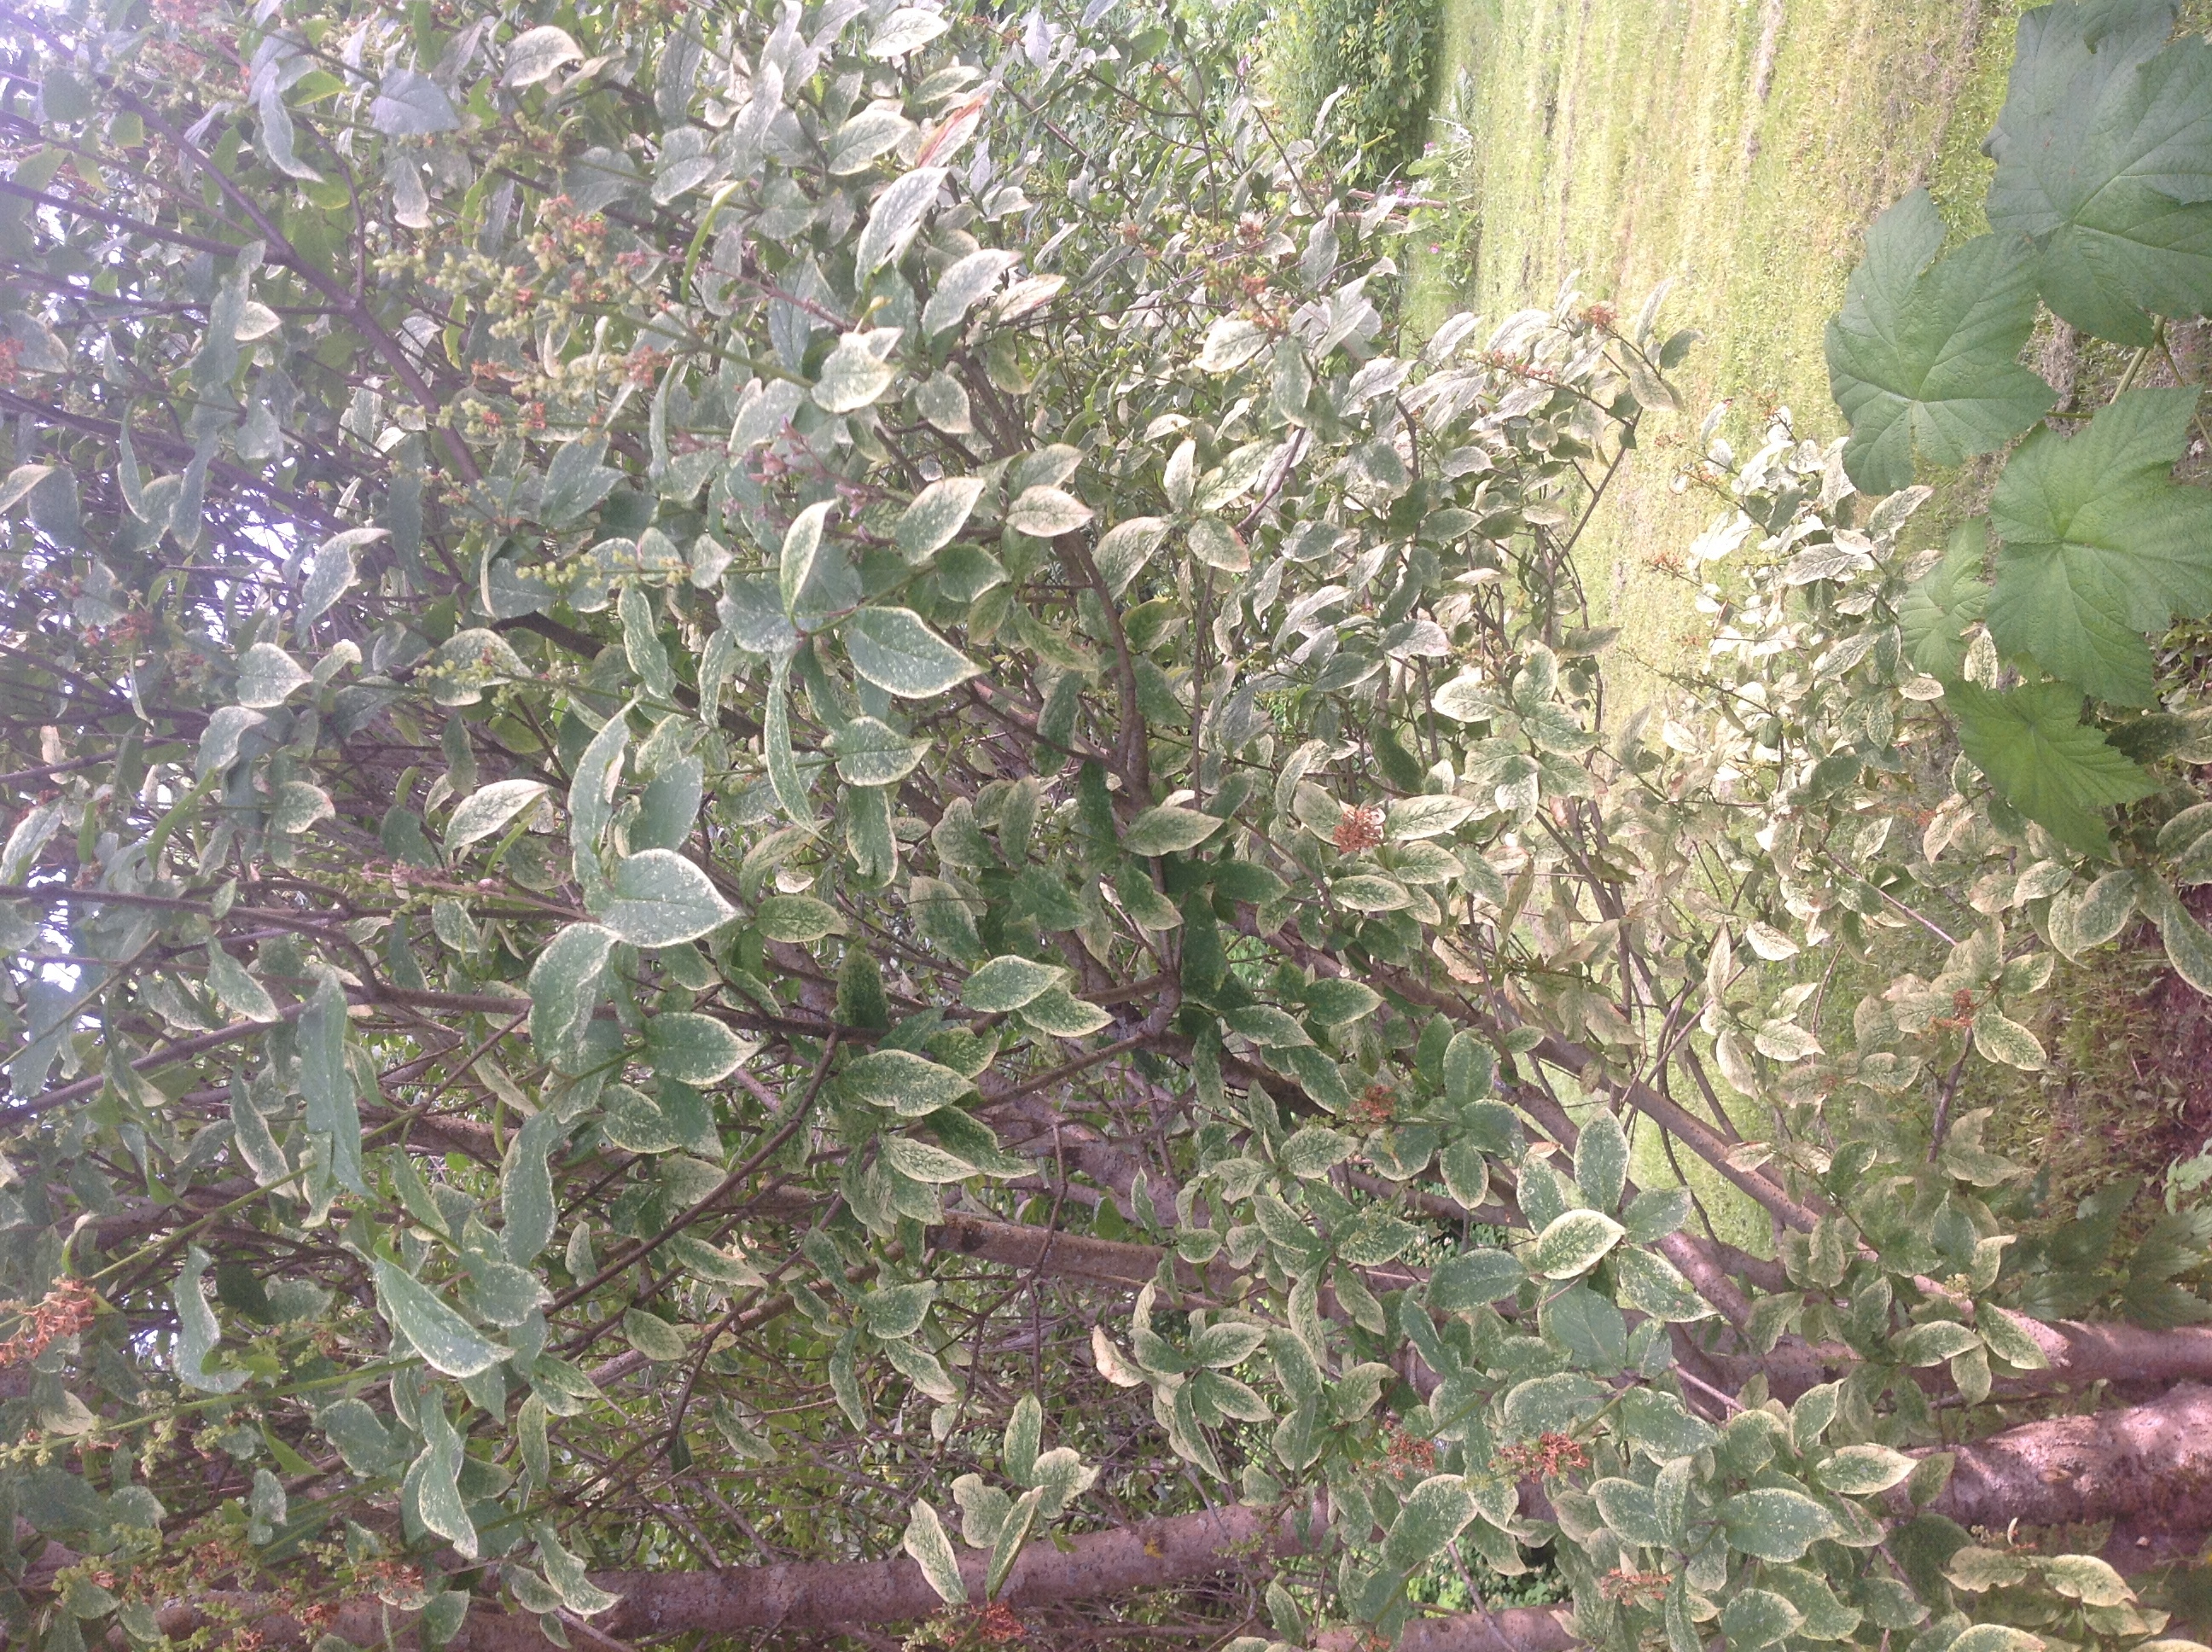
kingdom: Animalia
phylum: Arthropoda
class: Insecta
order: Hemiptera
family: Cicadellidae
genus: Vilbasteana
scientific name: Vilbasteana oculata
